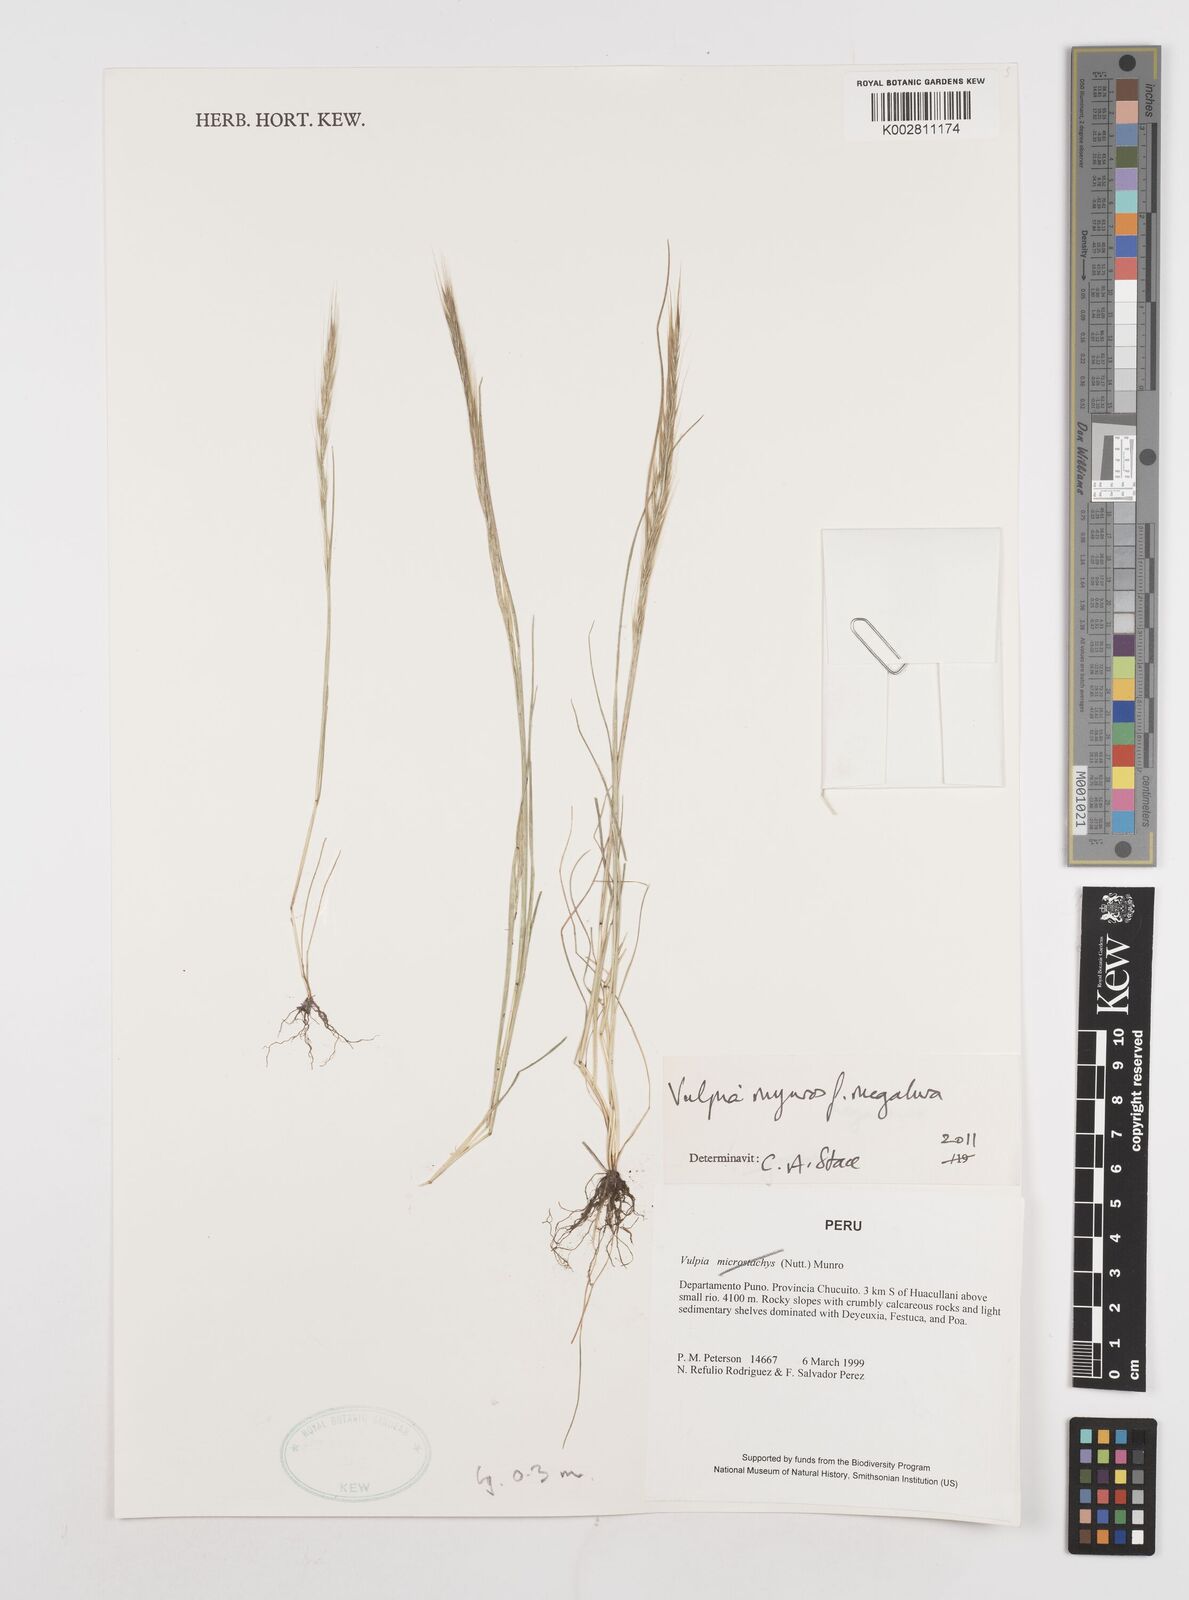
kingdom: Plantae
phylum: Tracheophyta
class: Liliopsida
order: Poales
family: Poaceae
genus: Festuca
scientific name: Festuca myuros
